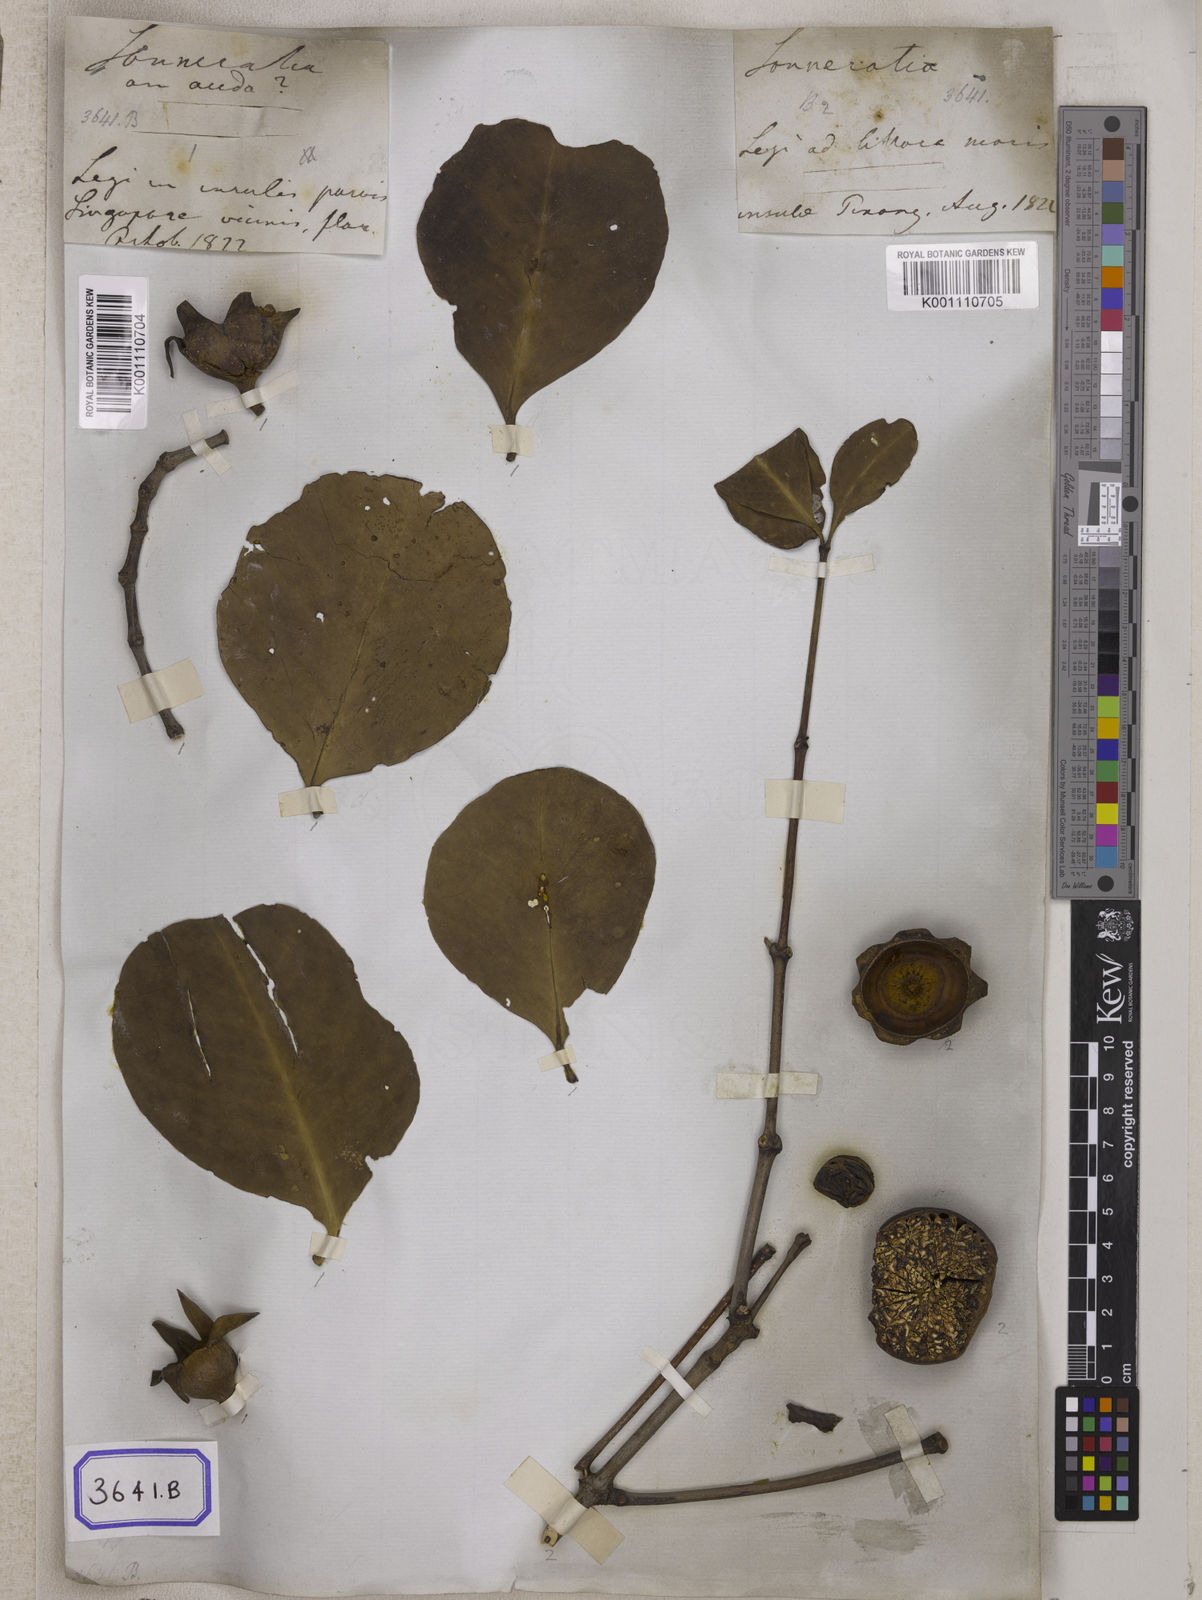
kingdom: Plantae
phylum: Tracheophyta
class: Magnoliopsida
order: Myrtales
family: Lythraceae
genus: Sonneratia
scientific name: Sonneratia caseolaris
